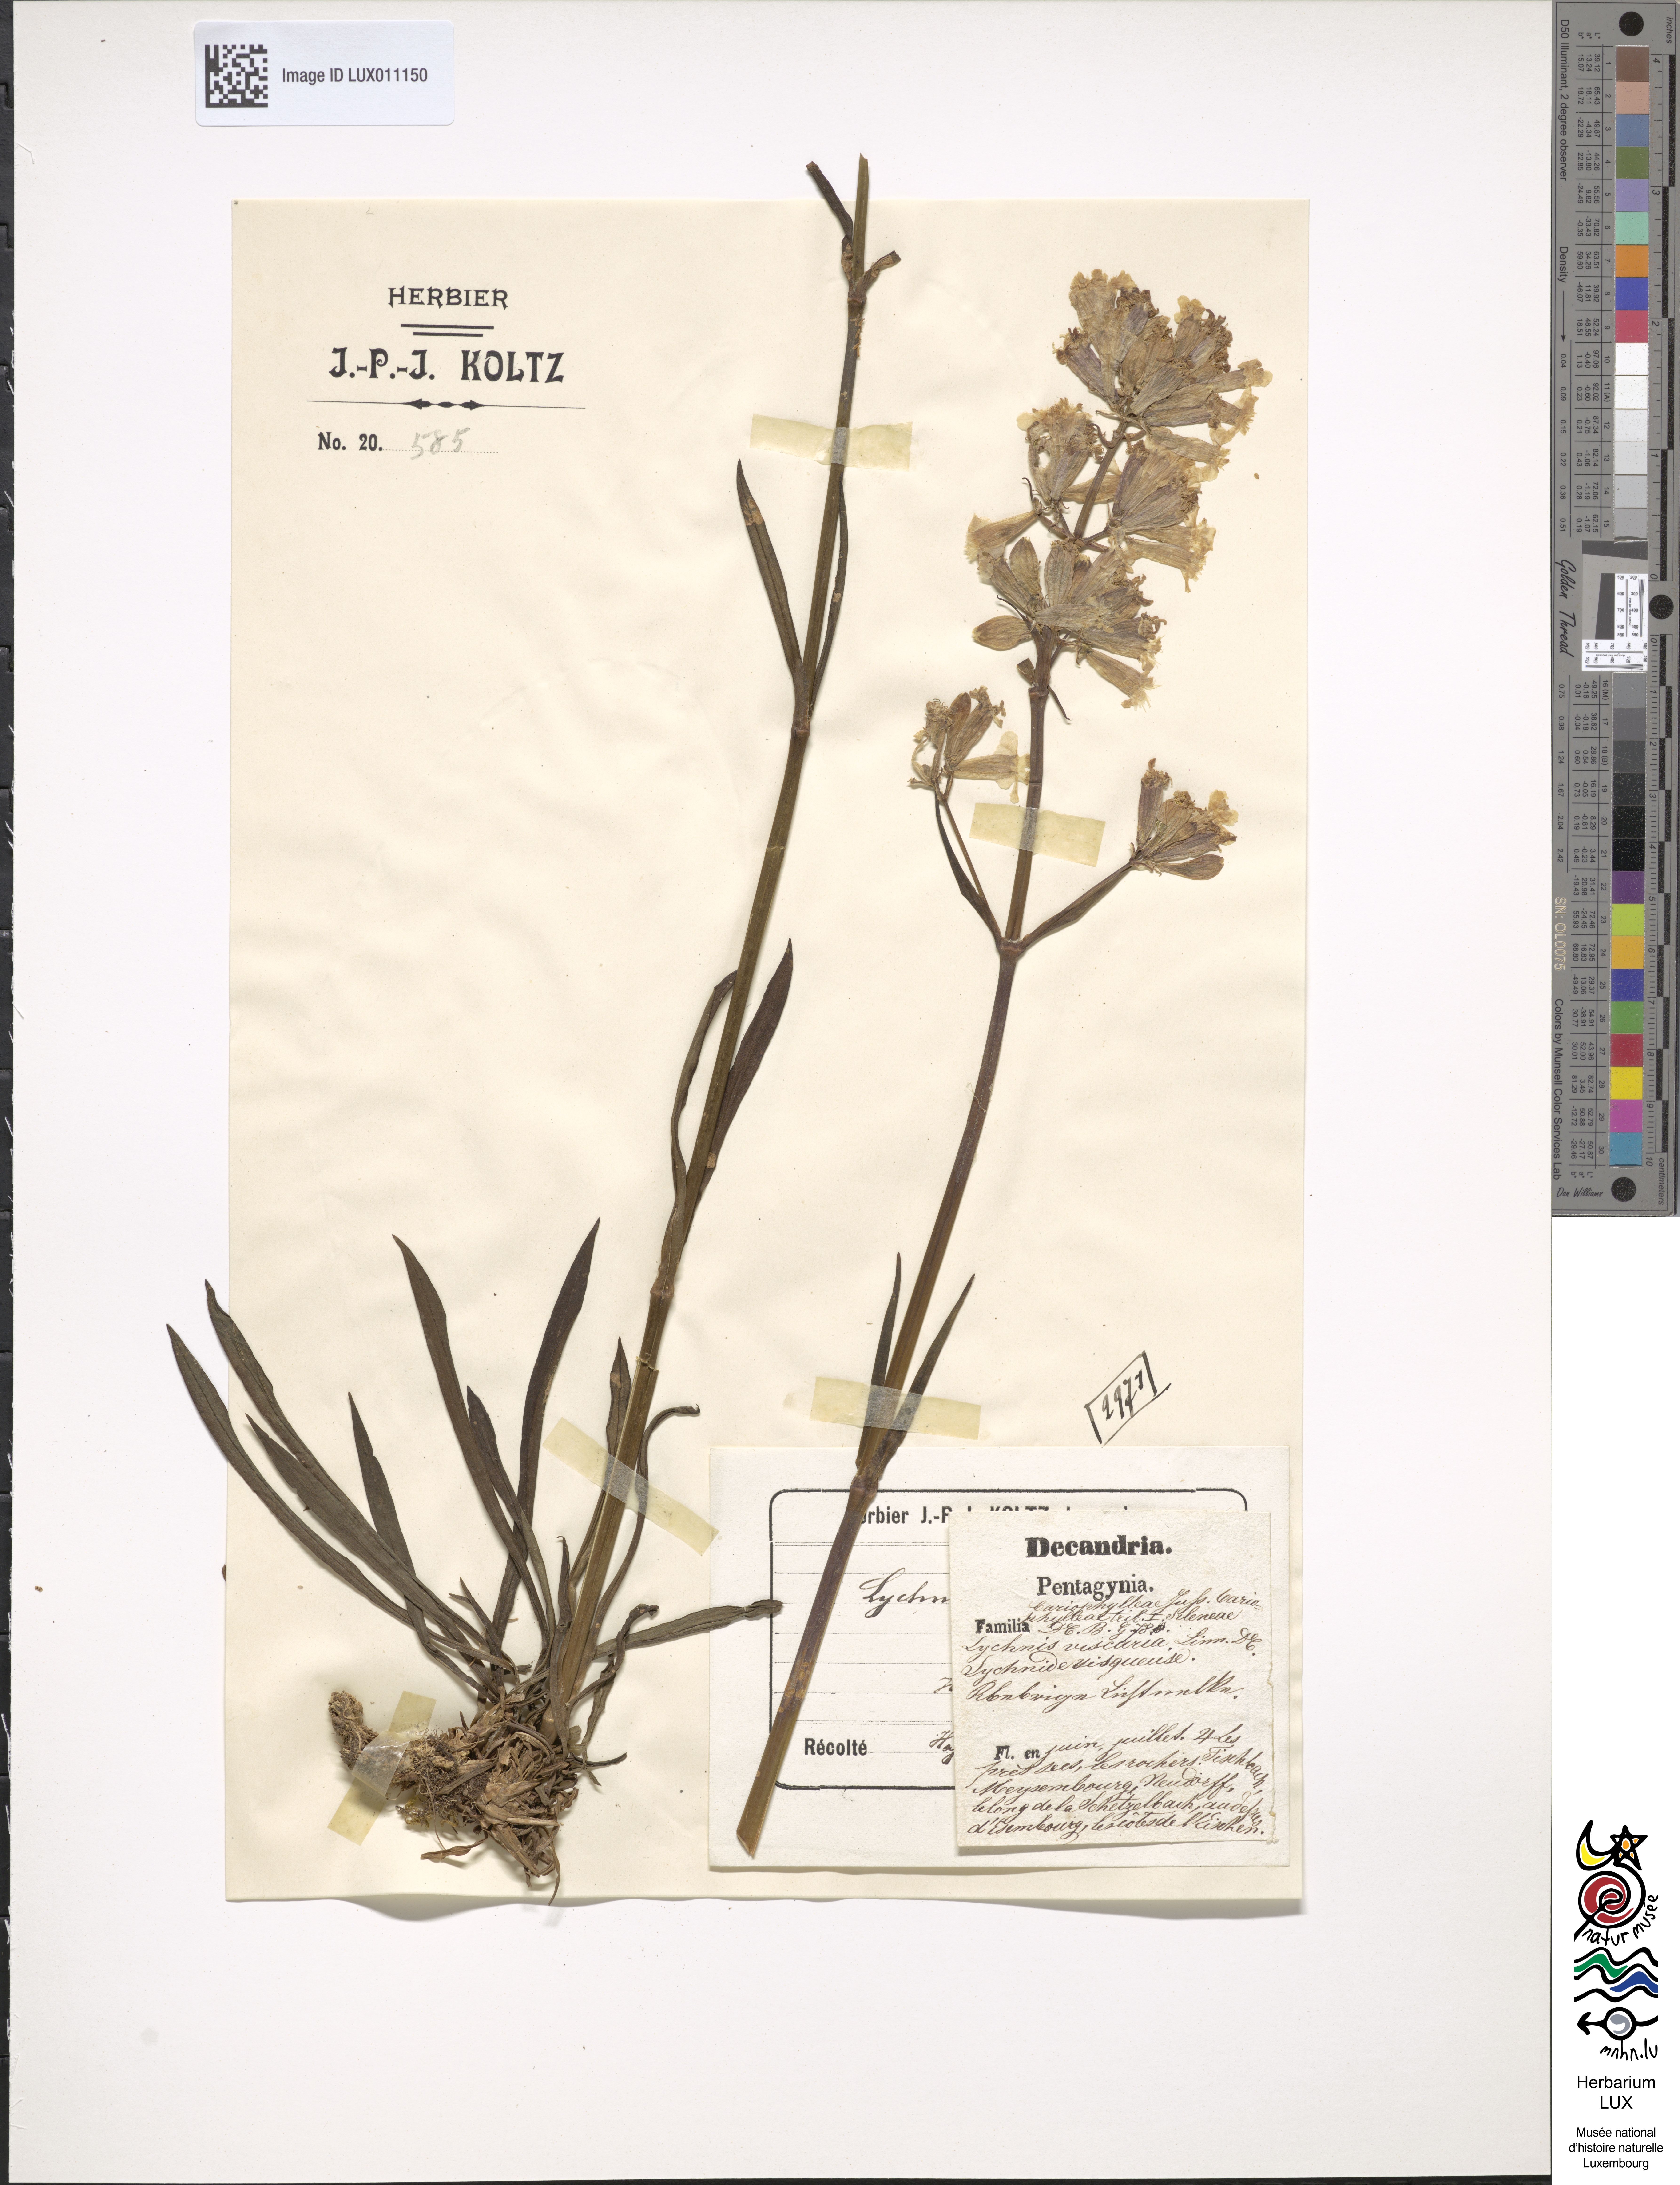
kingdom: Plantae
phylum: Tracheophyta
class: Magnoliopsida
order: Caryophyllales
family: Caryophyllaceae
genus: Viscaria
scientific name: Viscaria vulgaris
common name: Clammy campion
